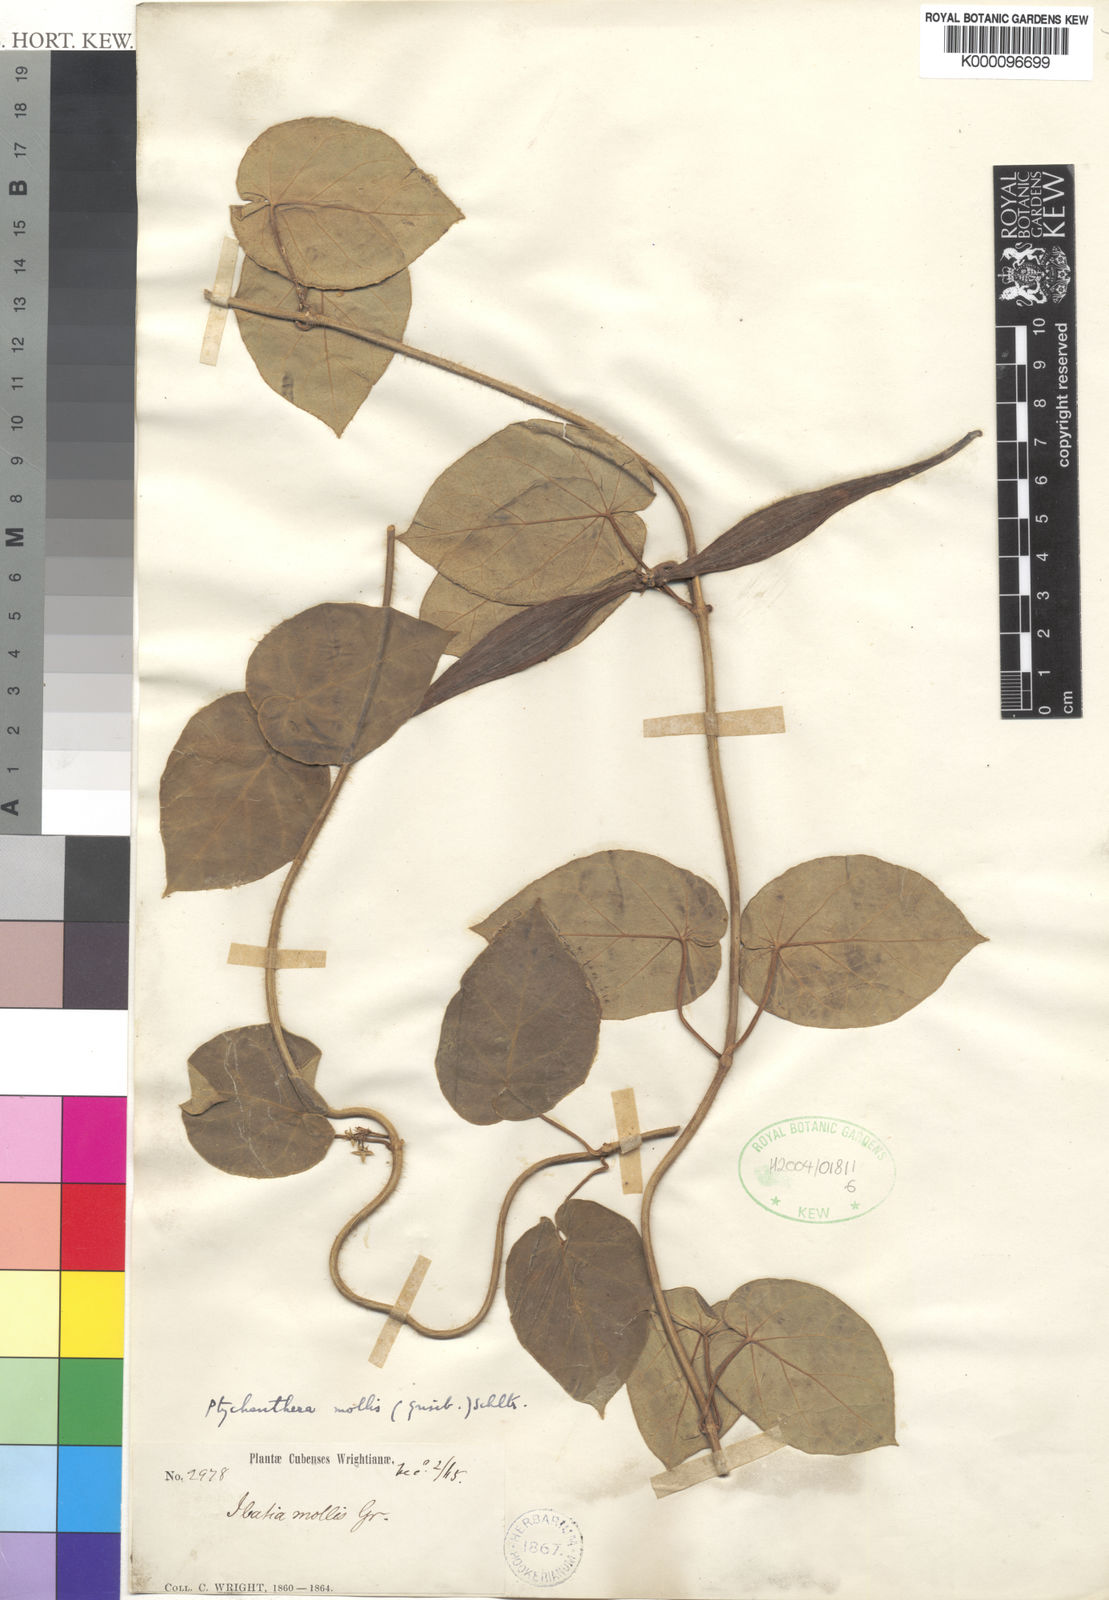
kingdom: Plantae
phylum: Tracheophyta
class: Magnoliopsida
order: Gentianales
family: Apocynaceae
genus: Ibatia
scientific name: Ibatia mollis
